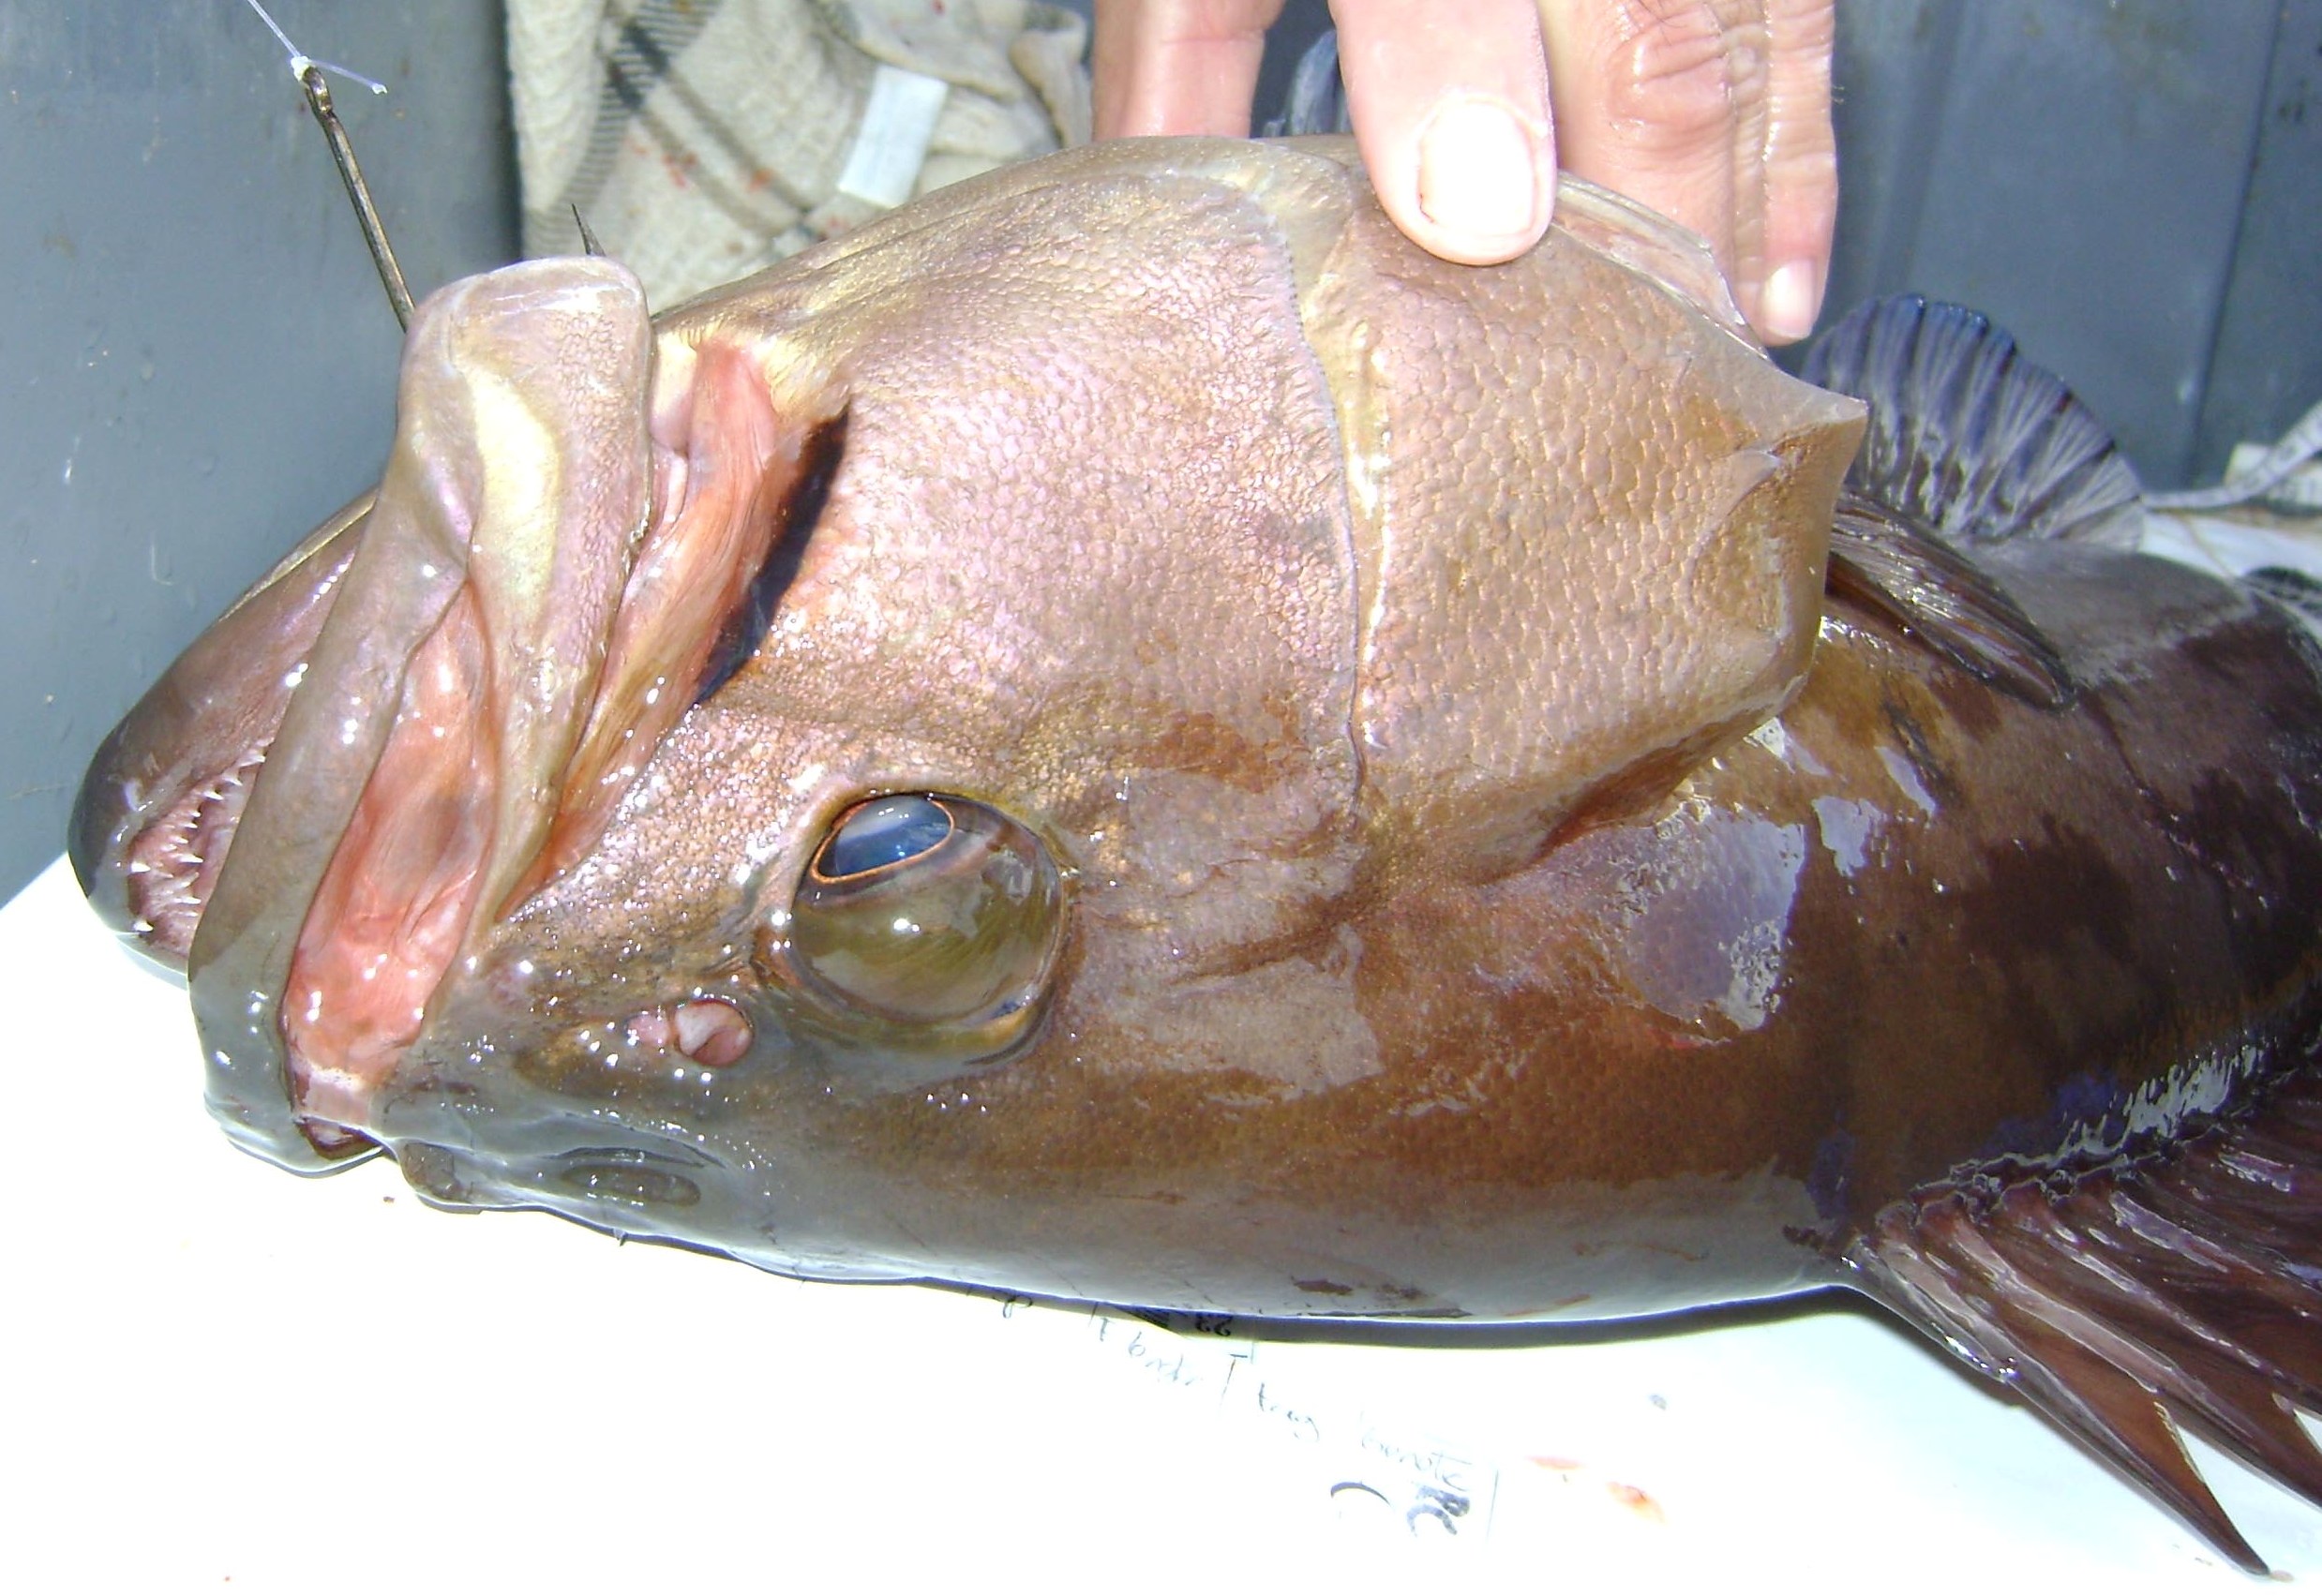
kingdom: Animalia
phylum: Chordata
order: Perciformes
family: Serranidae
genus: Epinephelus
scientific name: Epinephelus chabaudi
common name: Moustache grouper
